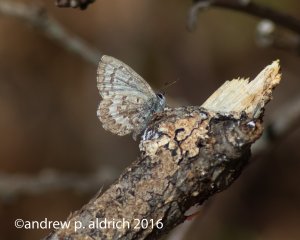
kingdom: Animalia
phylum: Arthropoda
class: Insecta
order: Lepidoptera
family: Lycaenidae
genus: Celastrina
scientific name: Celastrina
